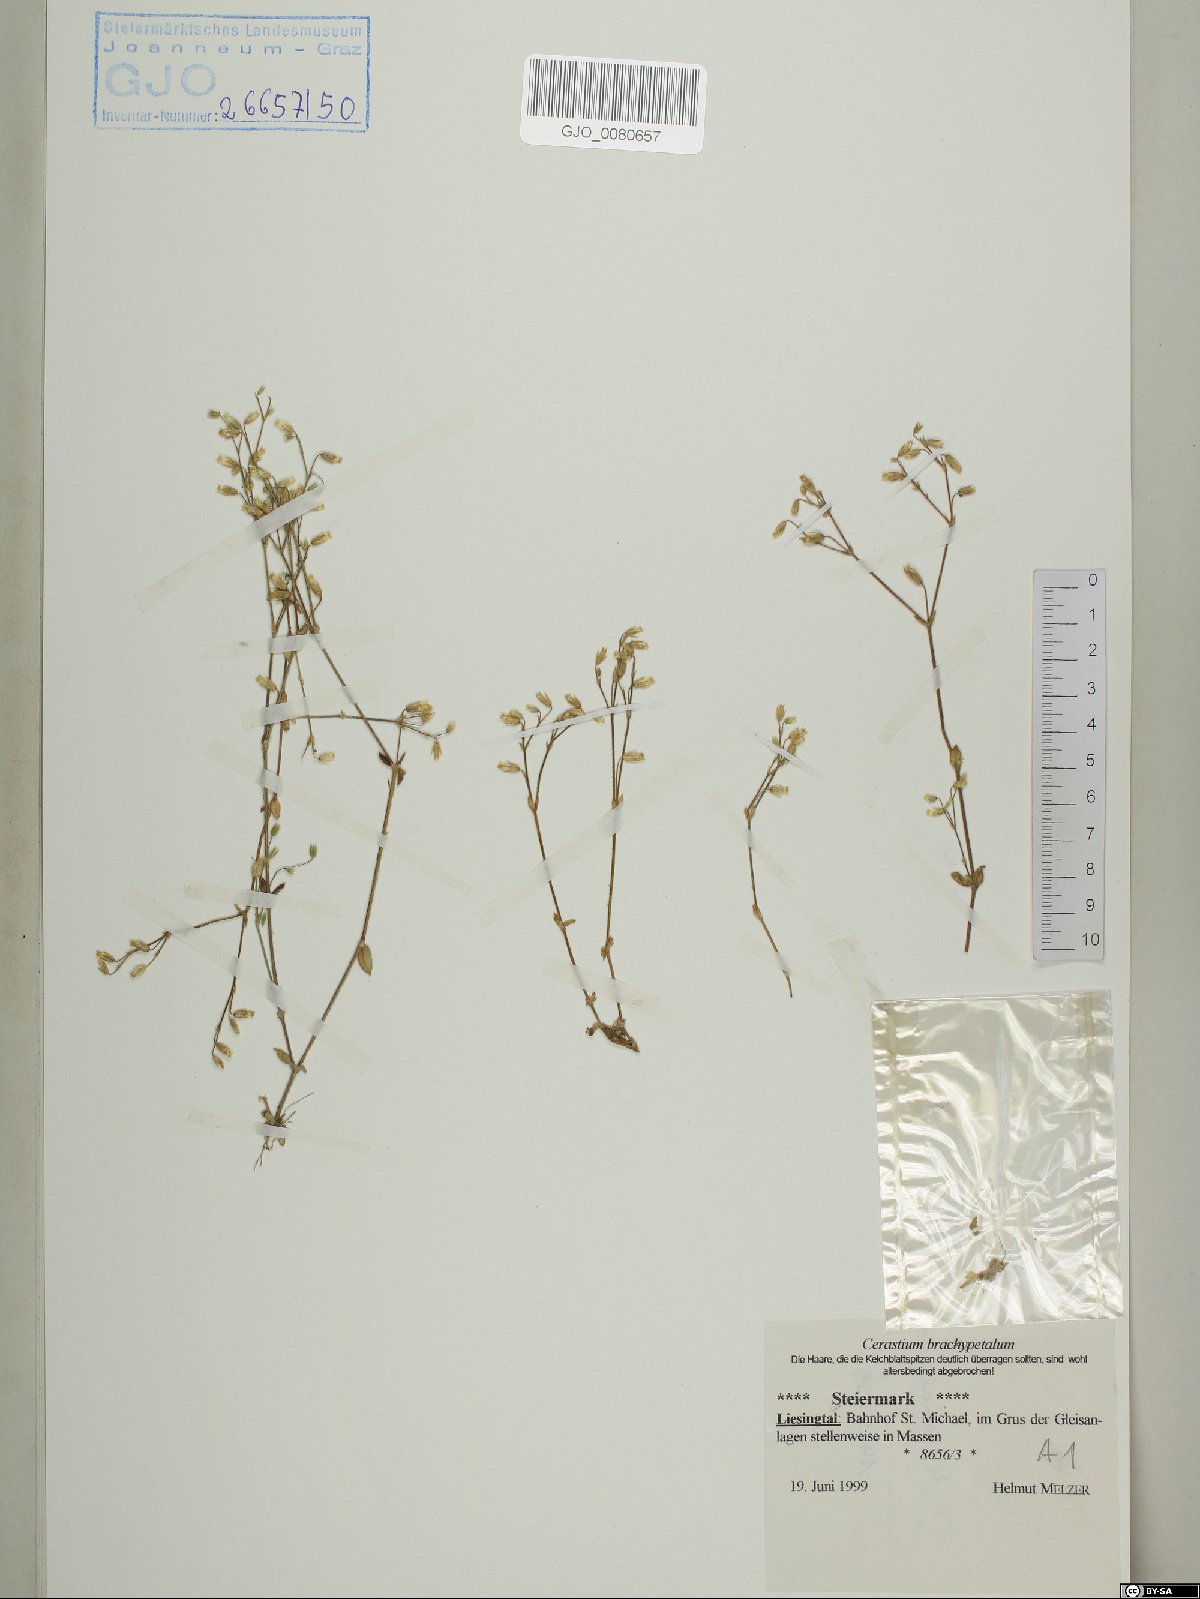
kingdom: Plantae
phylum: Tracheophyta
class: Magnoliopsida
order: Caryophyllales
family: Caryophyllaceae
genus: Cerastium
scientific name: Cerastium brachypetalum
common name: Grey mouse-ear
